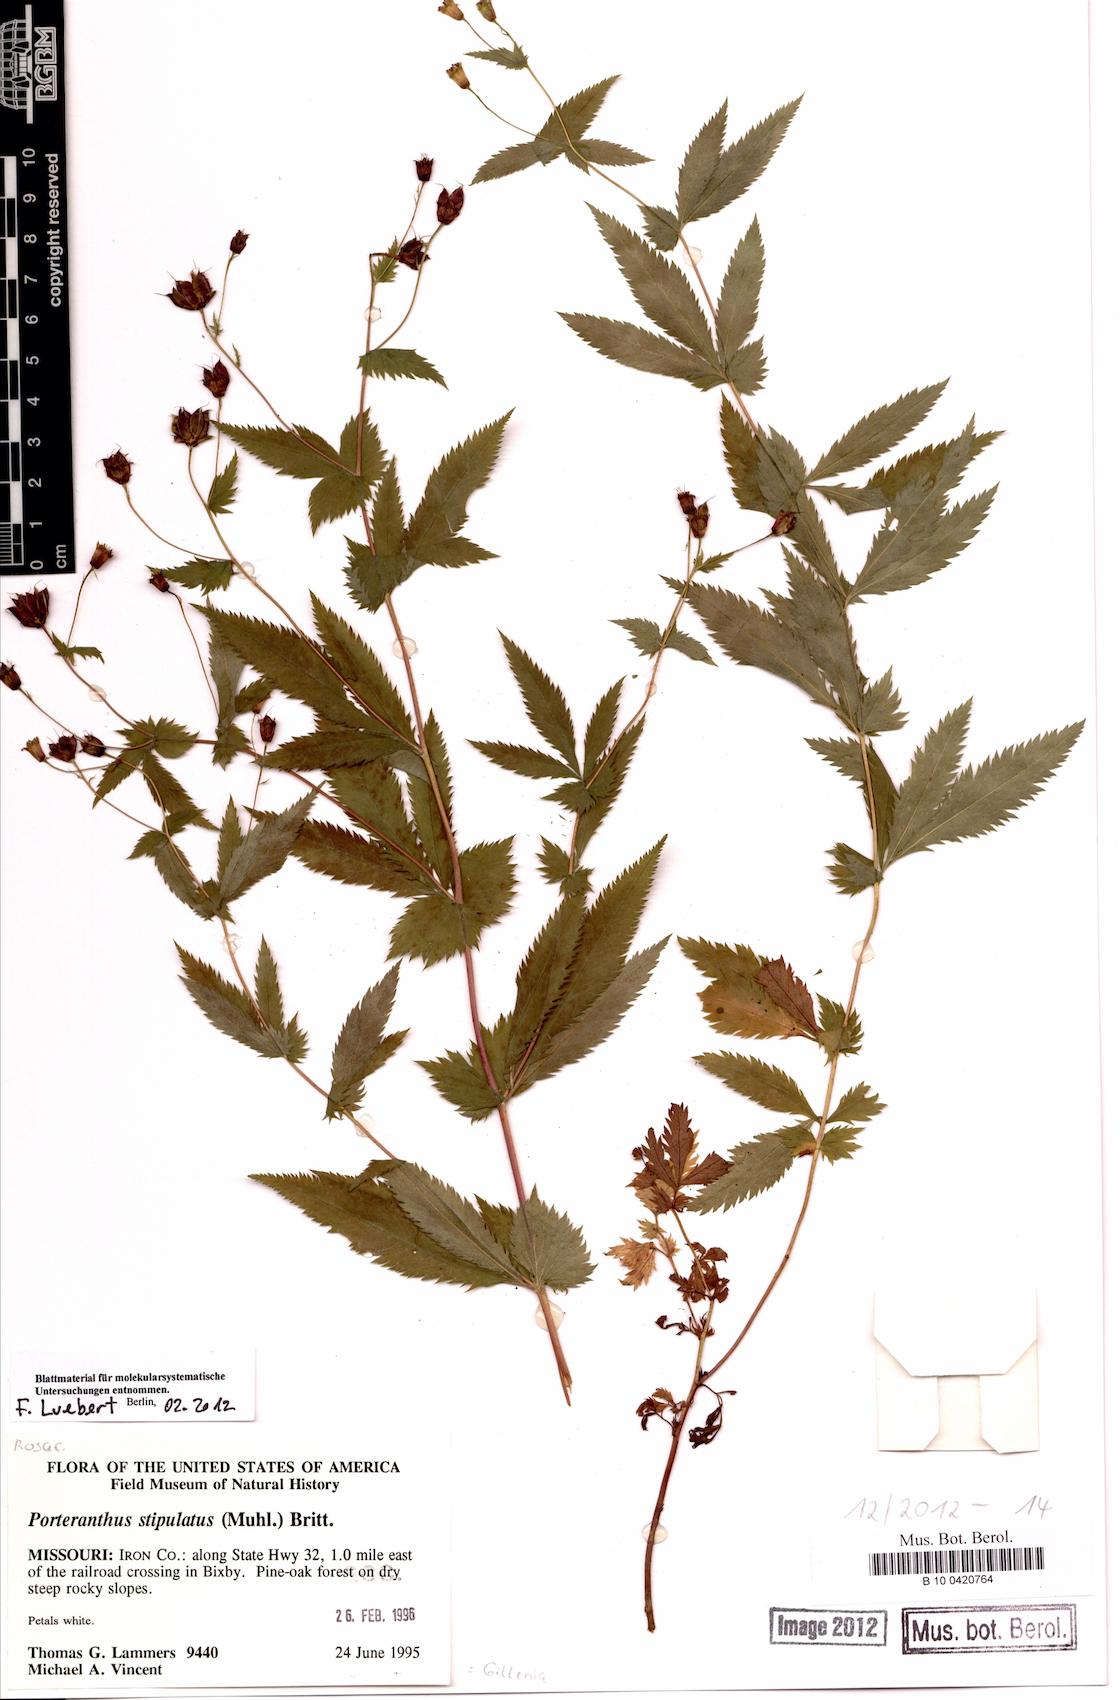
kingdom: Plantae
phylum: Tracheophyta
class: Magnoliopsida
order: Rosales
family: Rosaceae
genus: Gillenia
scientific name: Gillenia stipulata
